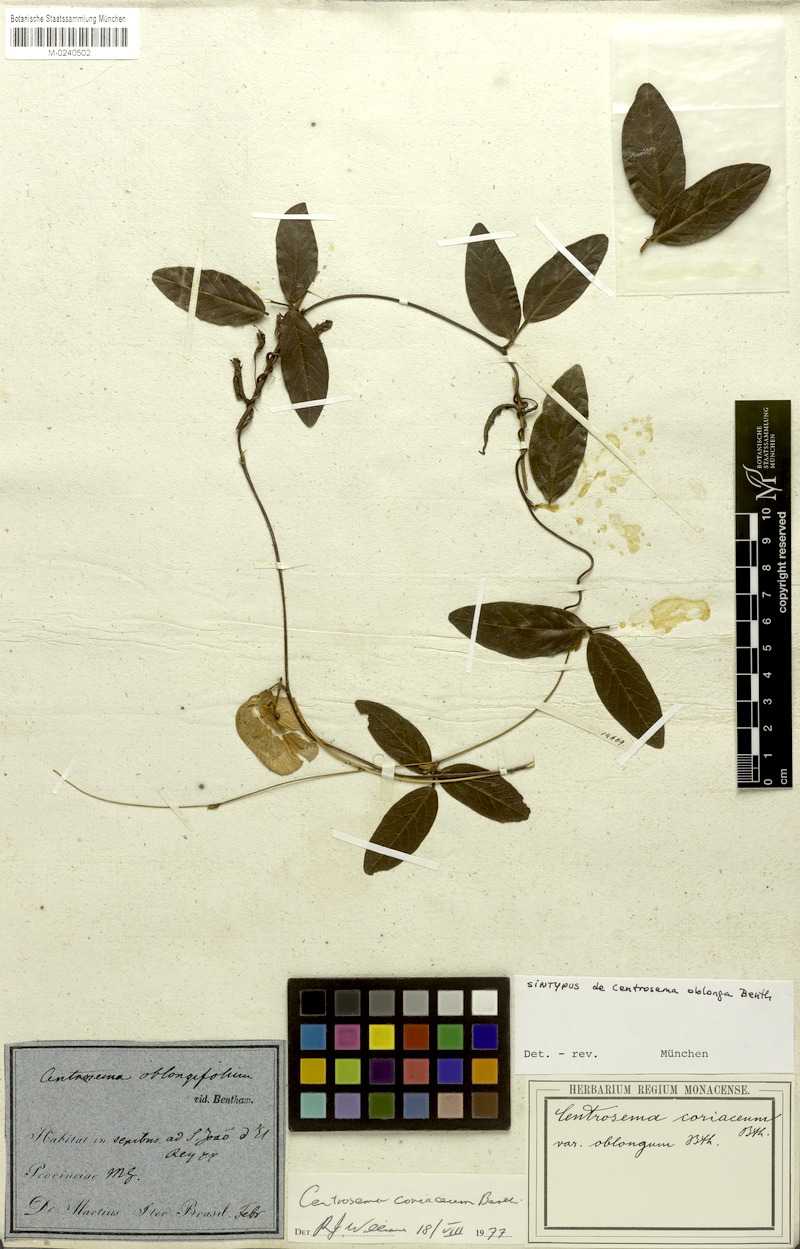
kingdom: Plantae
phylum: Tracheophyta
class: Magnoliopsida
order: Fabales
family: Fabaceae
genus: Centrosema
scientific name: Centrosema coriaceum
